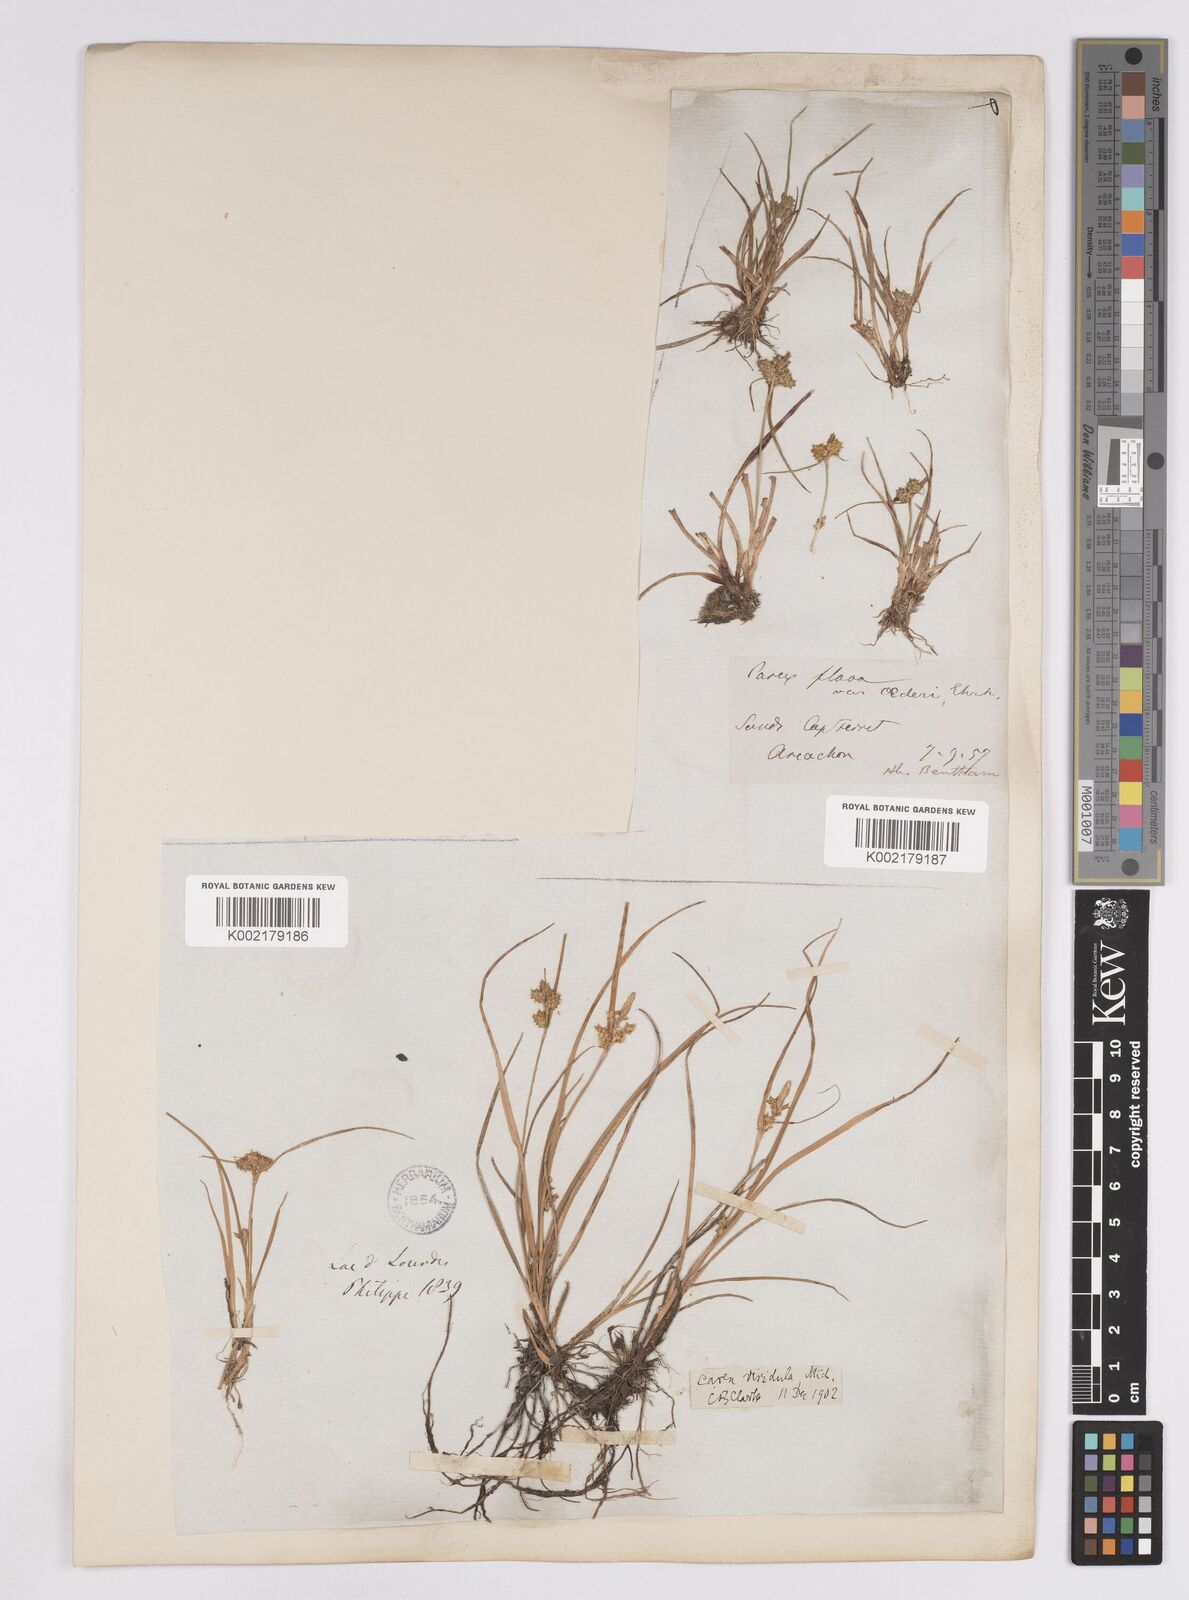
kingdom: Plantae
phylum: Tracheophyta
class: Liliopsida
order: Poales
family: Cyperaceae
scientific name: Cyperaceae
